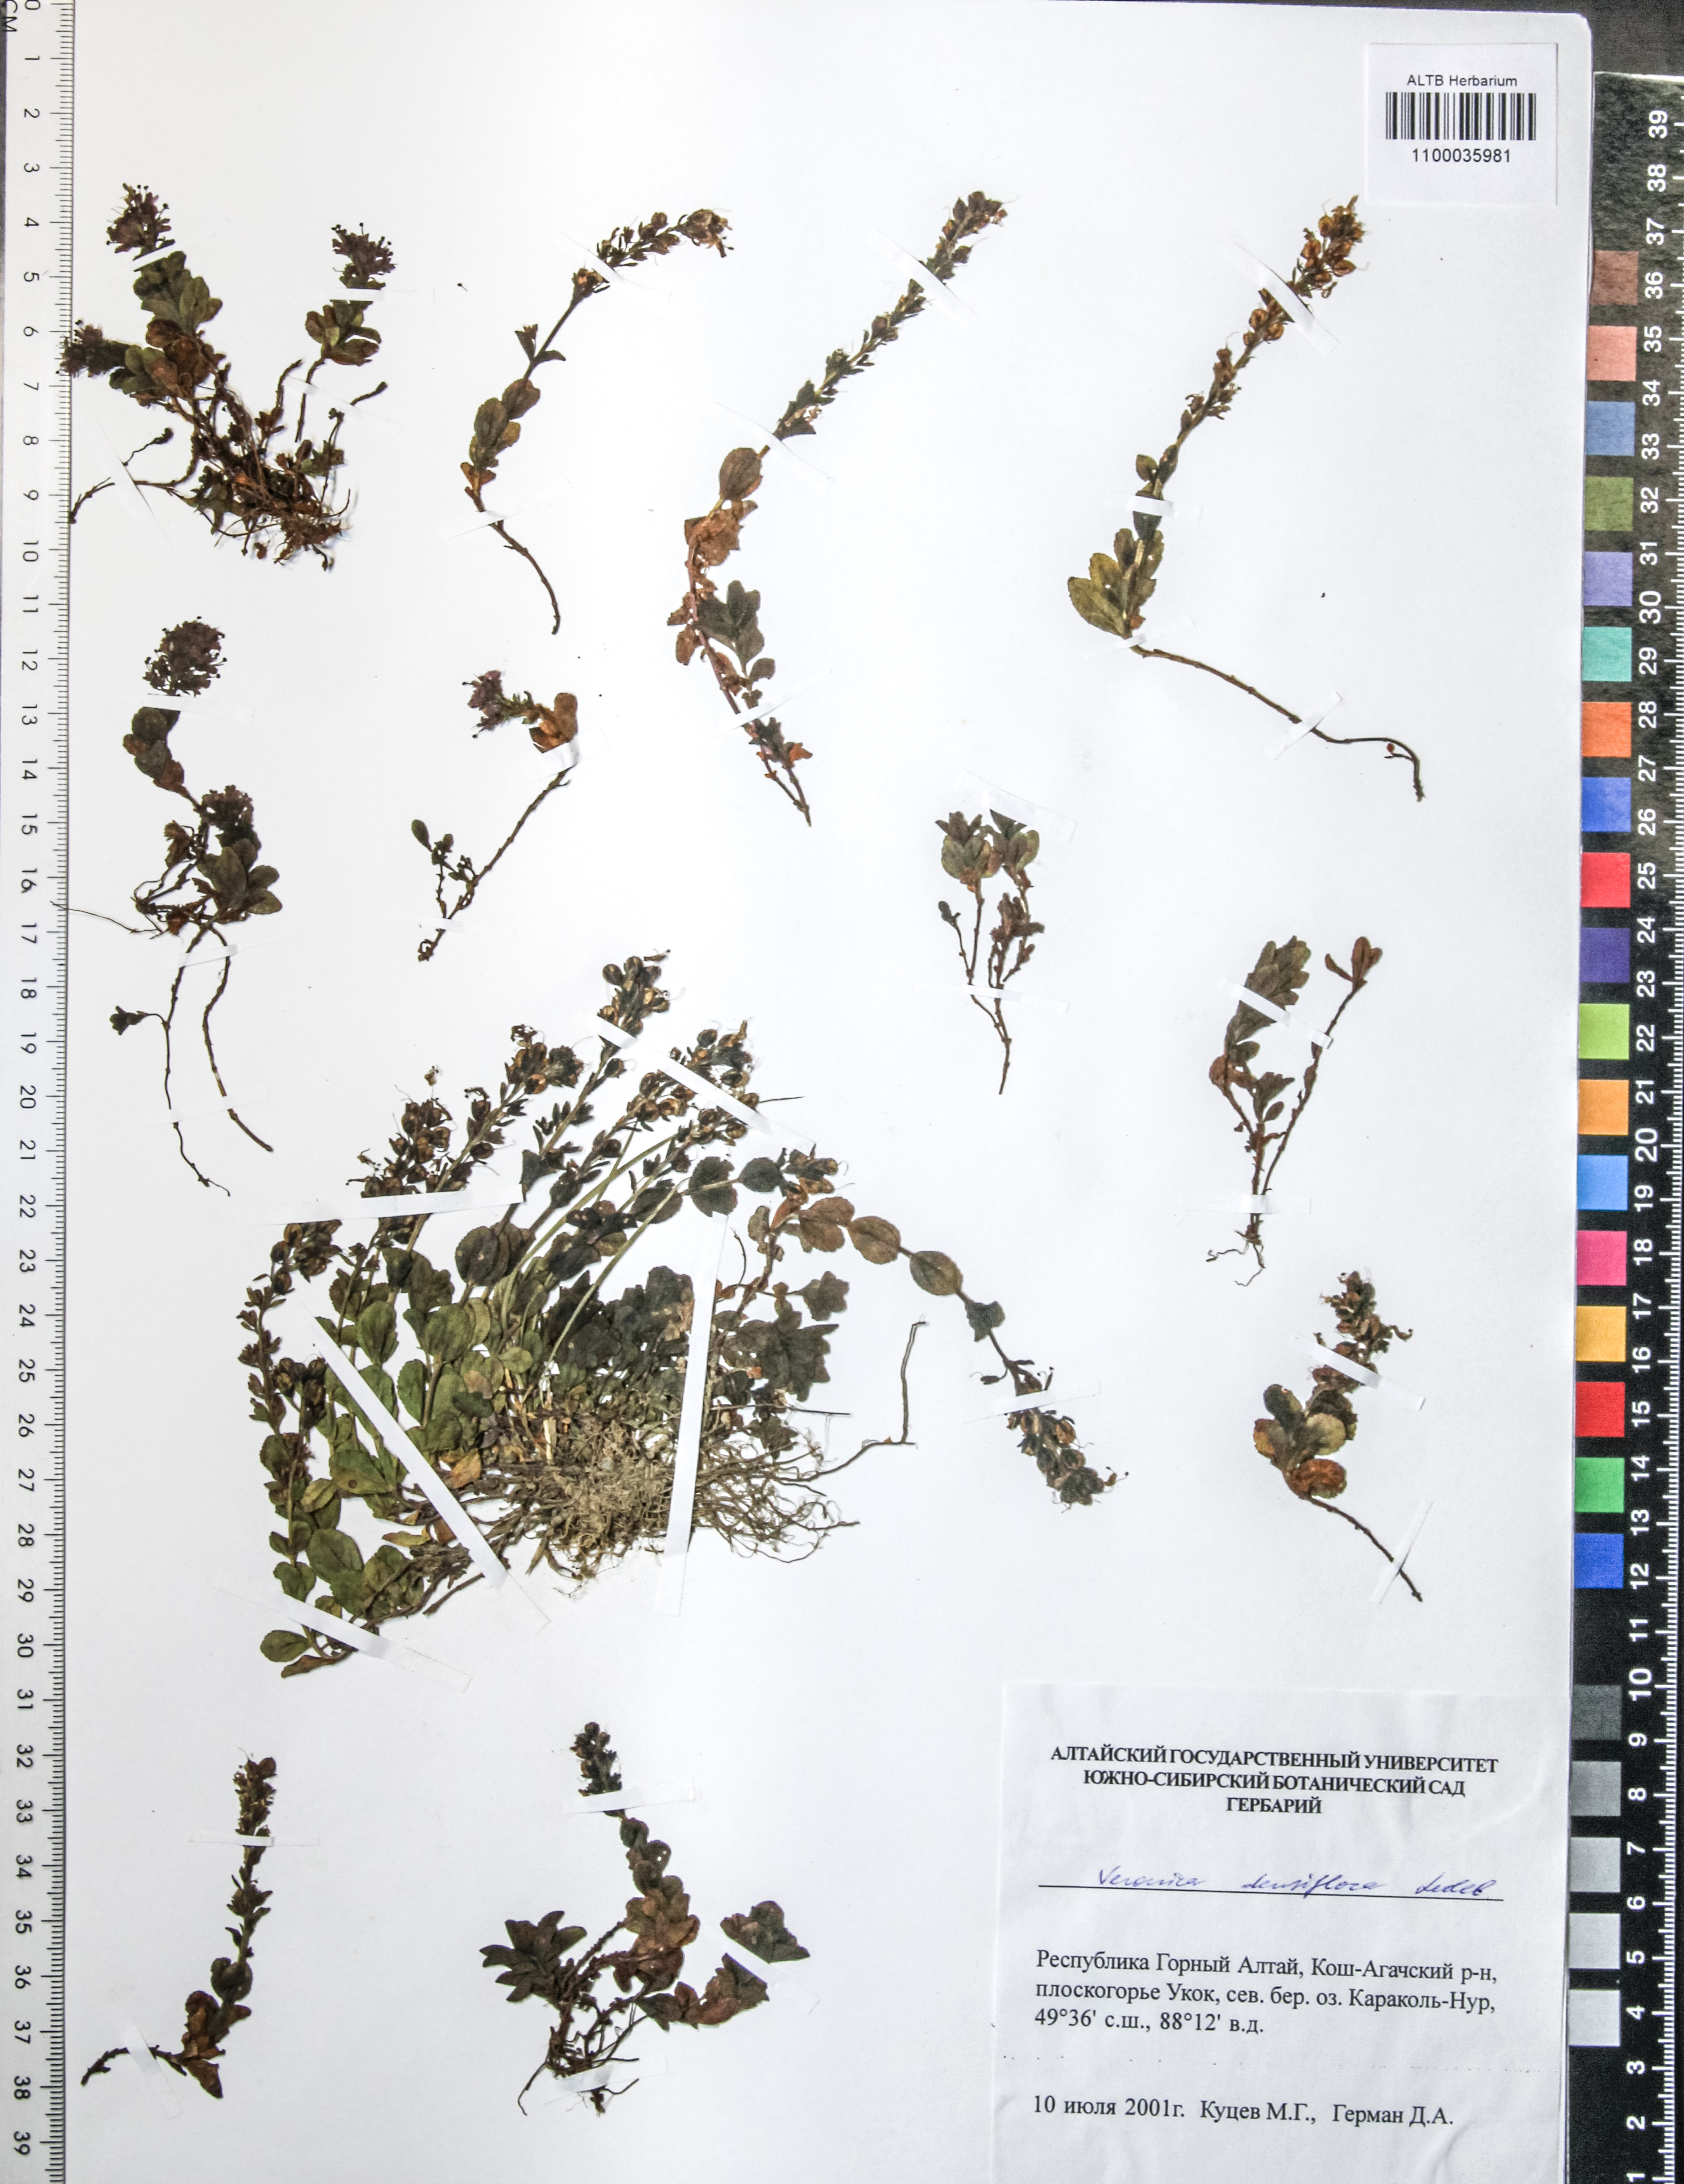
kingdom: Plantae
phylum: Tracheophyta
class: Magnoliopsida
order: Lamiales
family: Plantaginaceae
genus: Veronica
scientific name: Veronica densiflora
